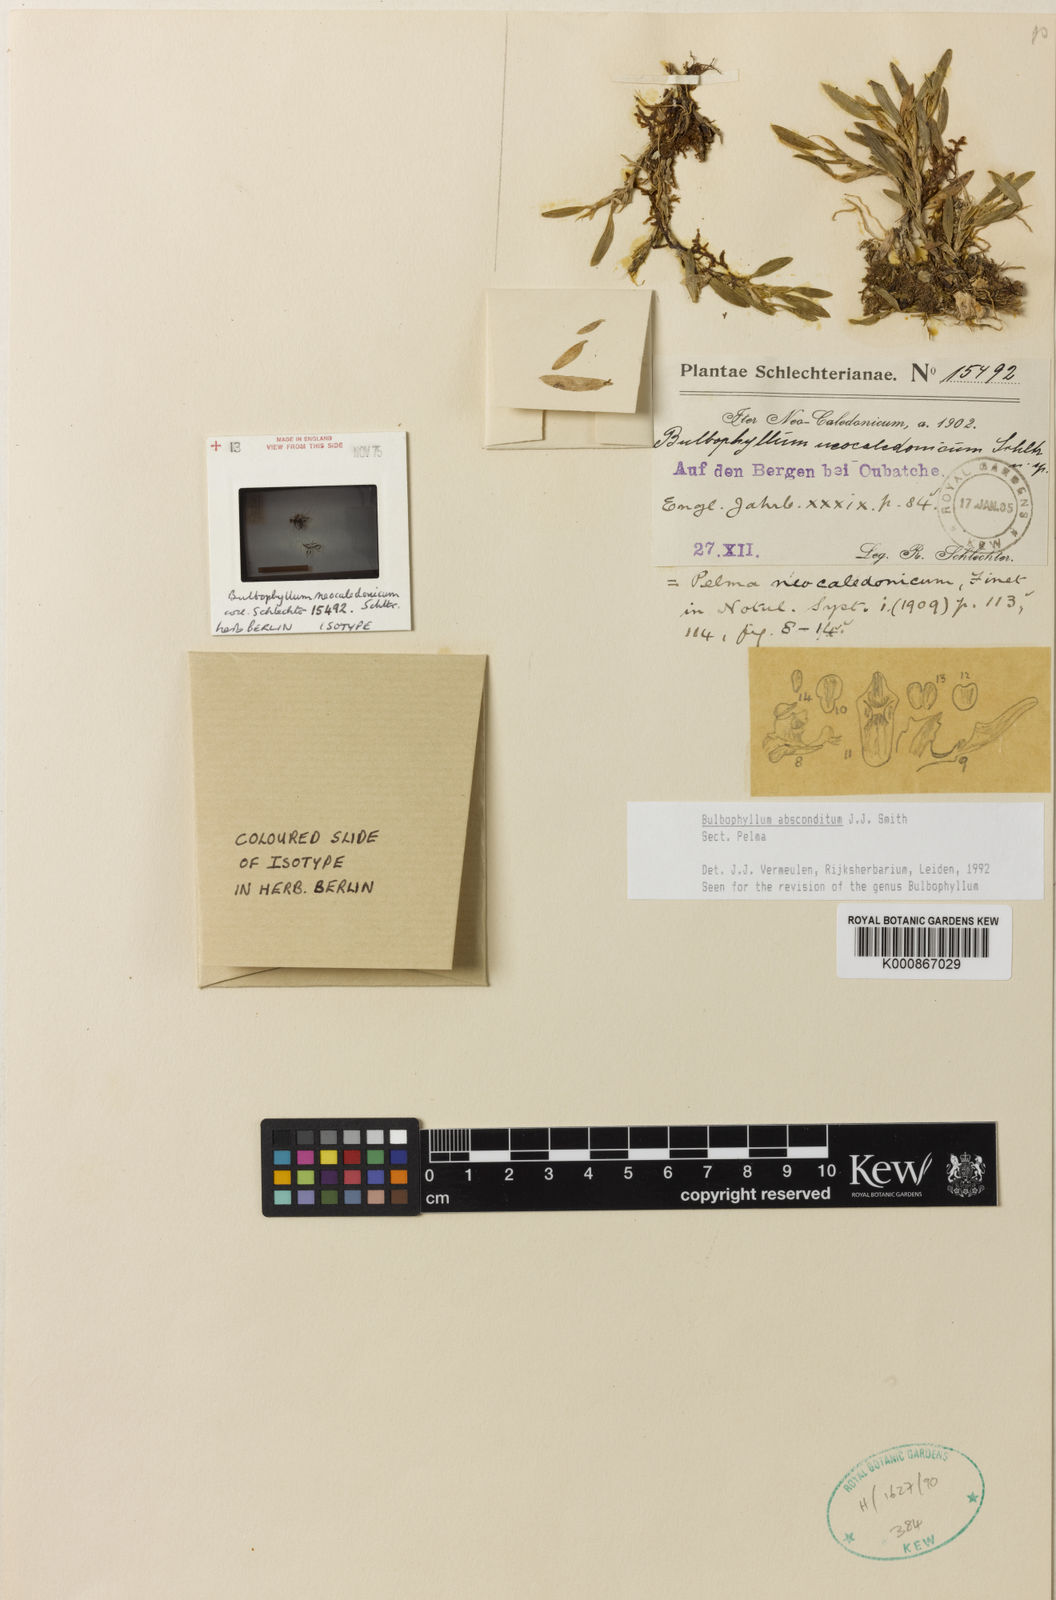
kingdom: Plantae
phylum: Tracheophyta
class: Liliopsida
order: Asparagales
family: Orchidaceae
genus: Bulbophyllum
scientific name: Bulbophyllum
